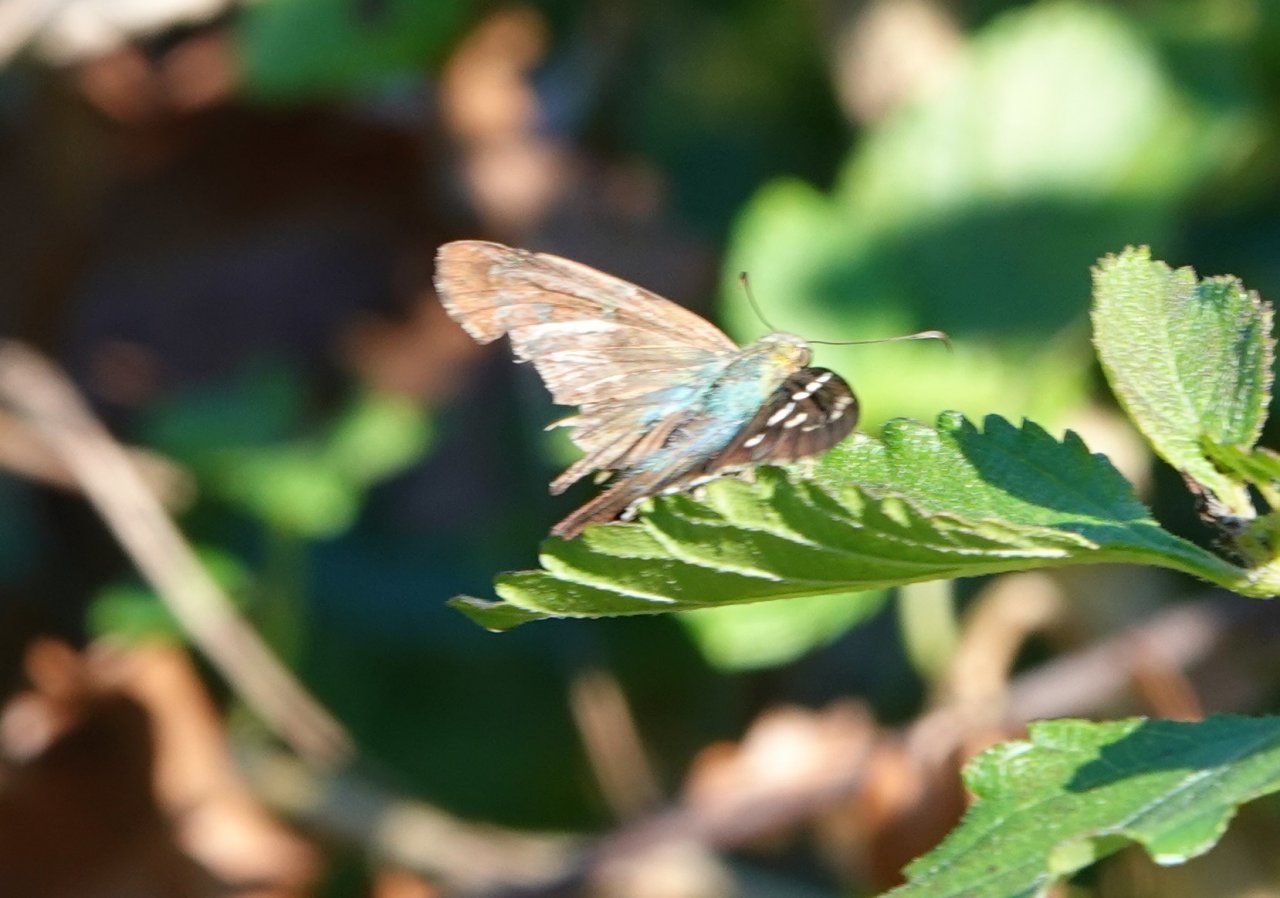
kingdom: Animalia
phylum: Arthropoda
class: Insecta
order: Lepidoptera
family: Hesperiidae
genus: Urbanus
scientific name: Urbanus proteus
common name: Long-tailed Skipper
